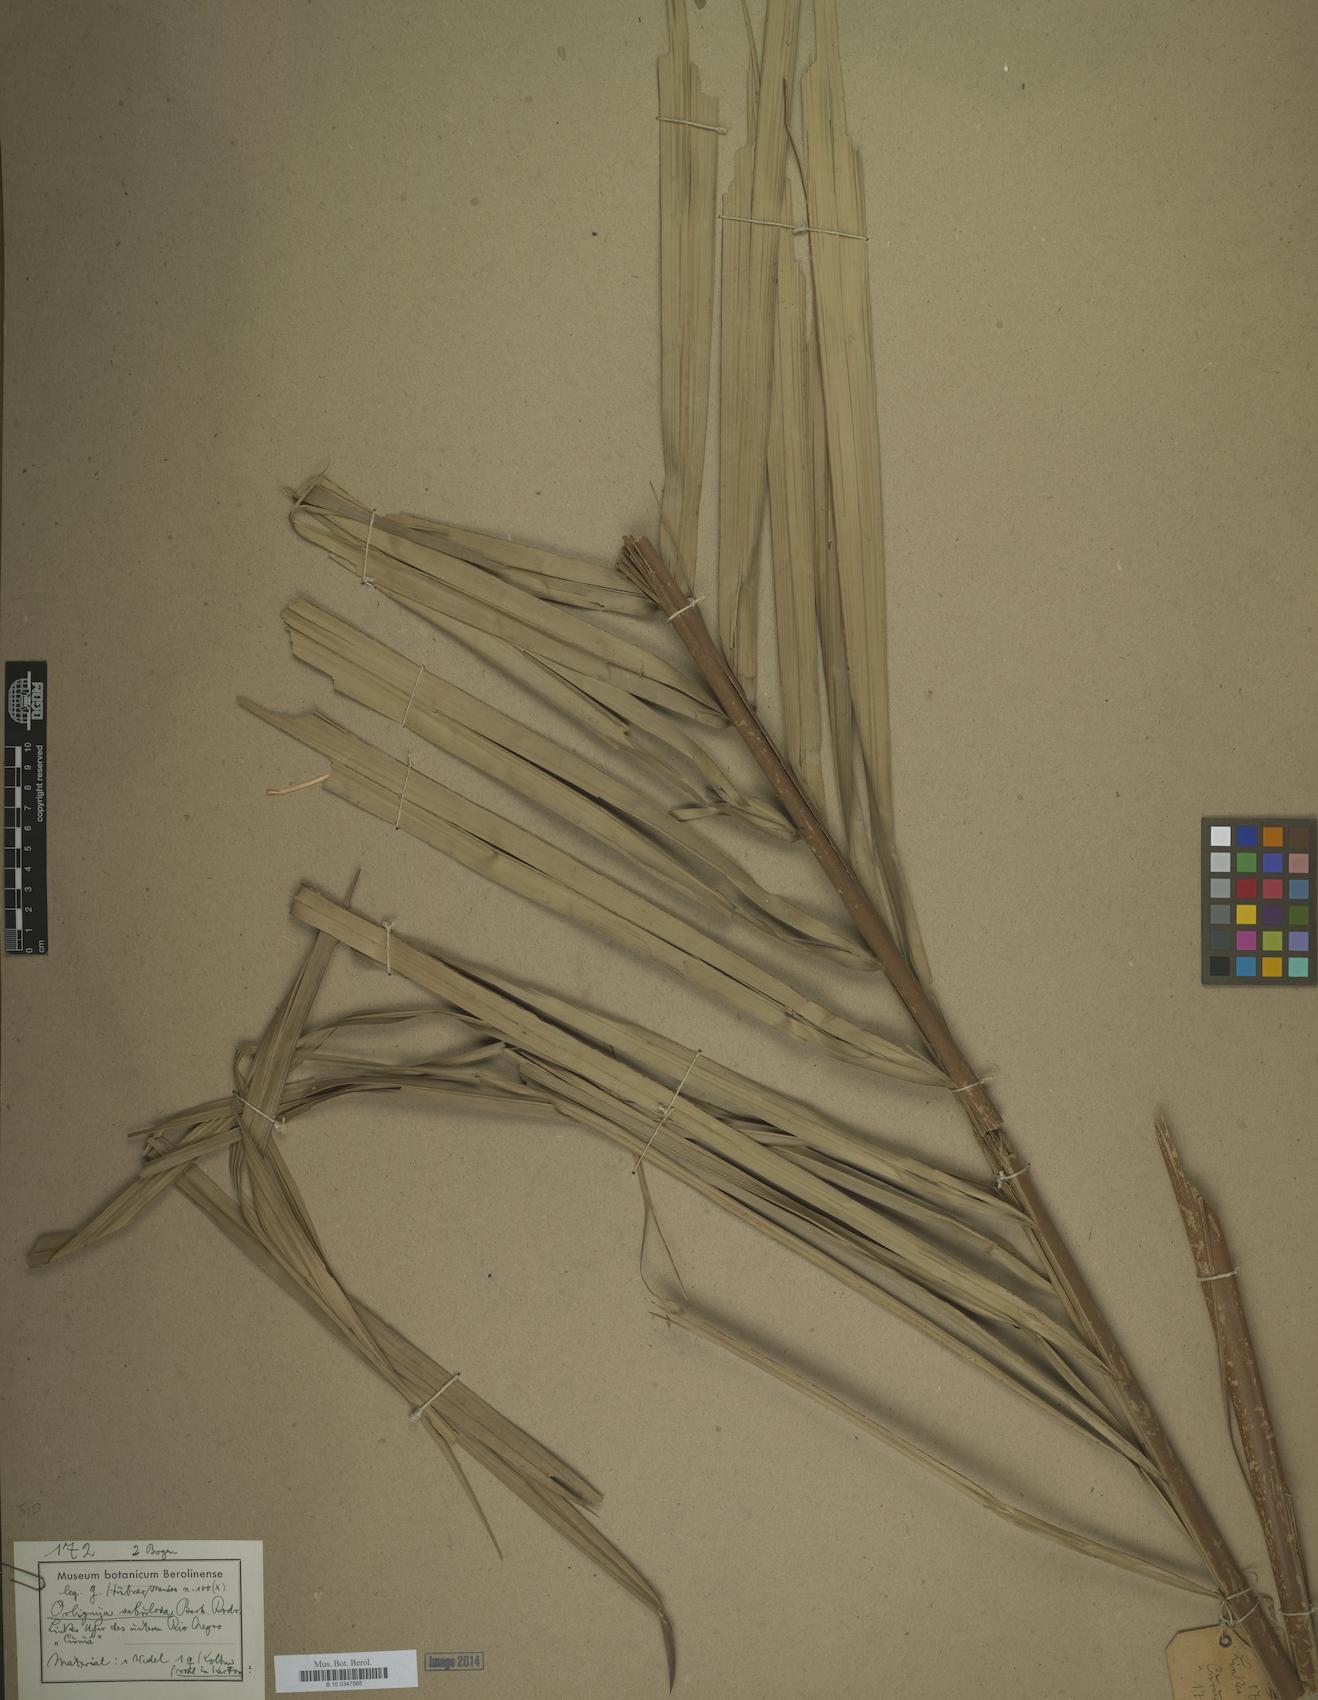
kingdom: Plantae
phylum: Tracheophyta
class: Liliopsida
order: Arecales
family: Arecaceae
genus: Attalea
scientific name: Attalea microcarpa
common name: Mountain maripa
